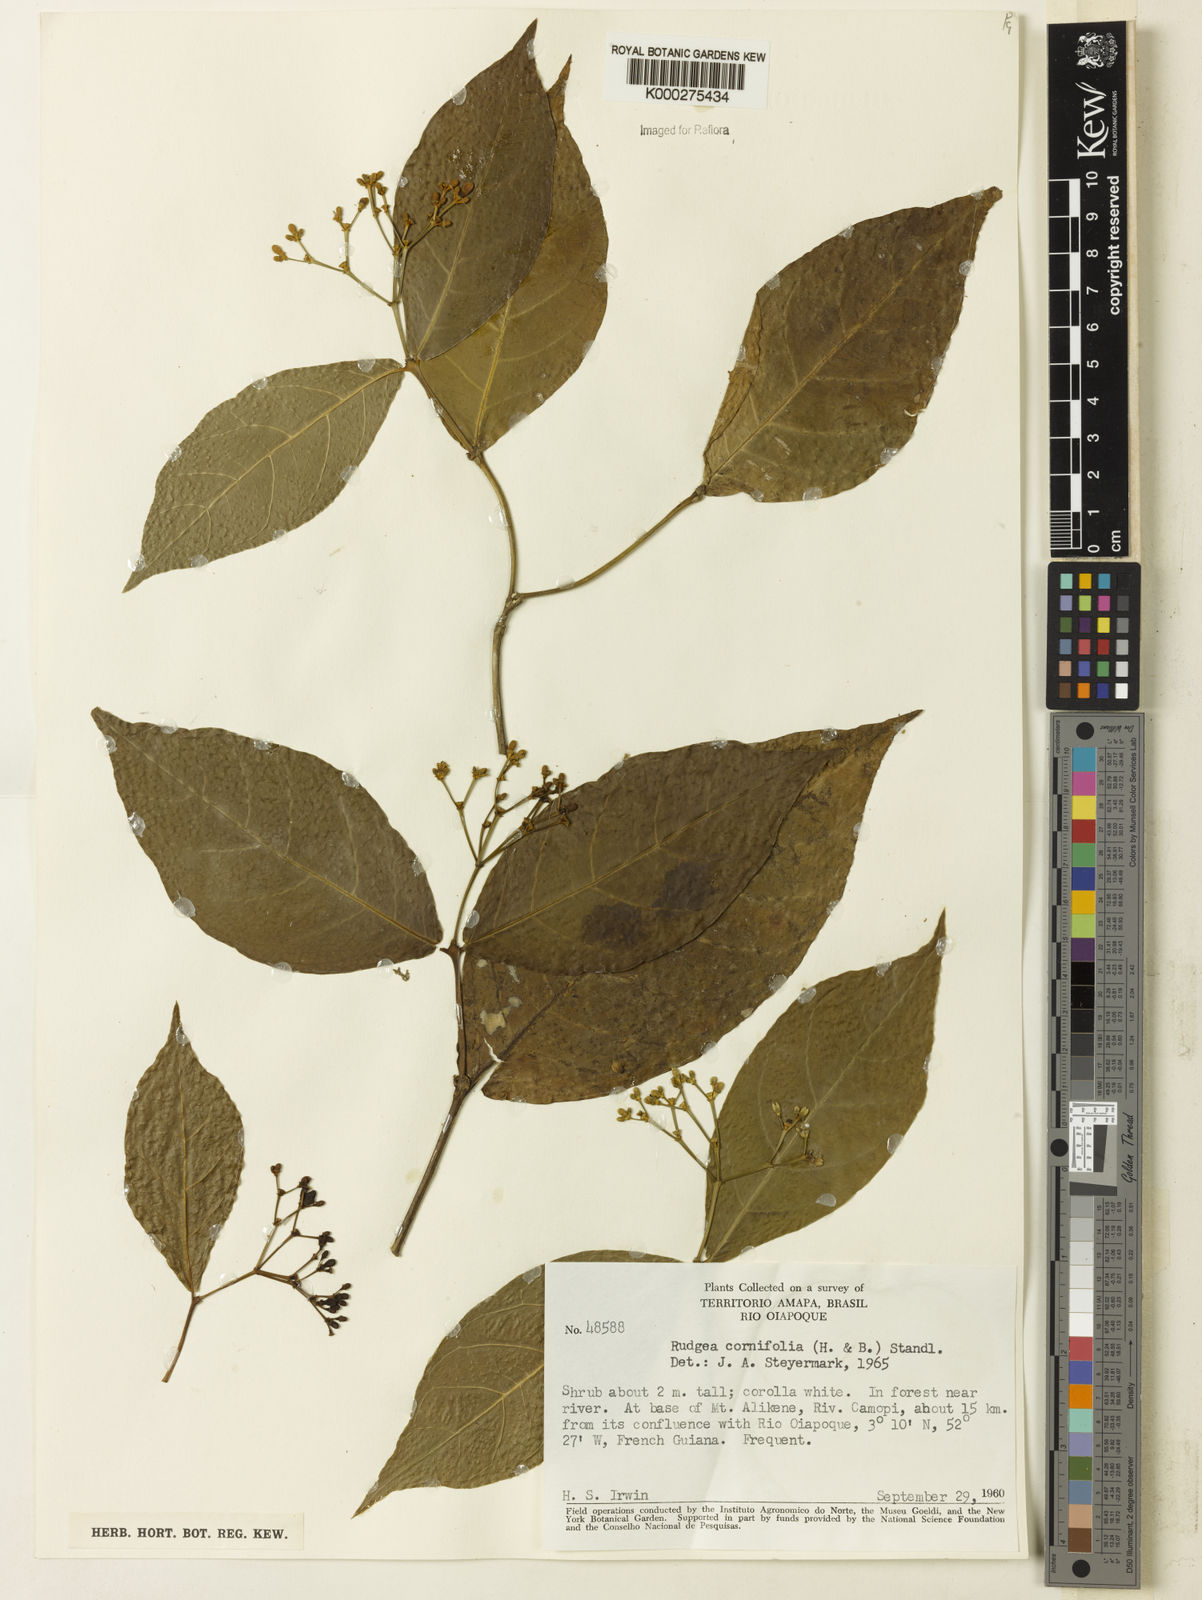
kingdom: Plantae
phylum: Tracheophyta
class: Magnoliopsida
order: Gentianales
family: Rubiaceae
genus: Rudgea
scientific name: Rudgea cornifolia
